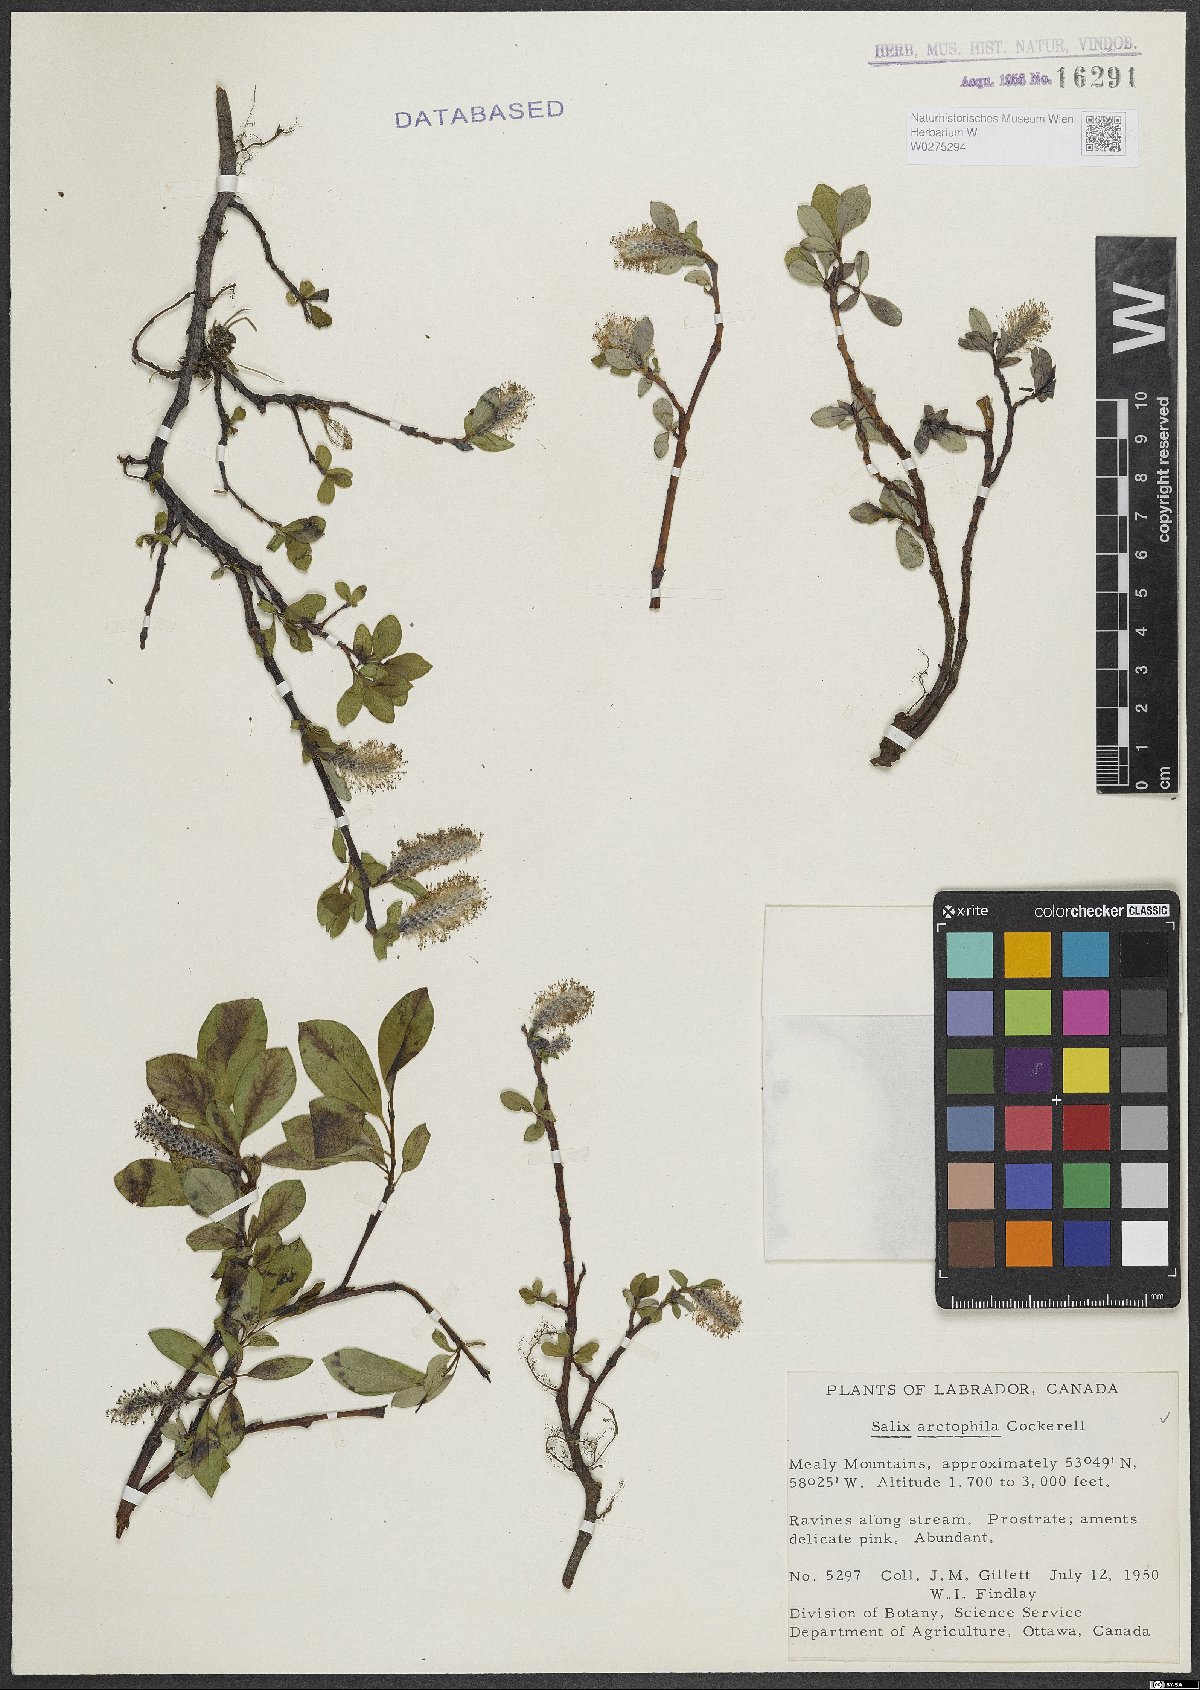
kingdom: Plantae
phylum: Tracheophyta
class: Magnoliopsida
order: Malpighiales
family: Salicaceae
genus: Salix
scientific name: Salix arctophila
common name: Greenland willow
